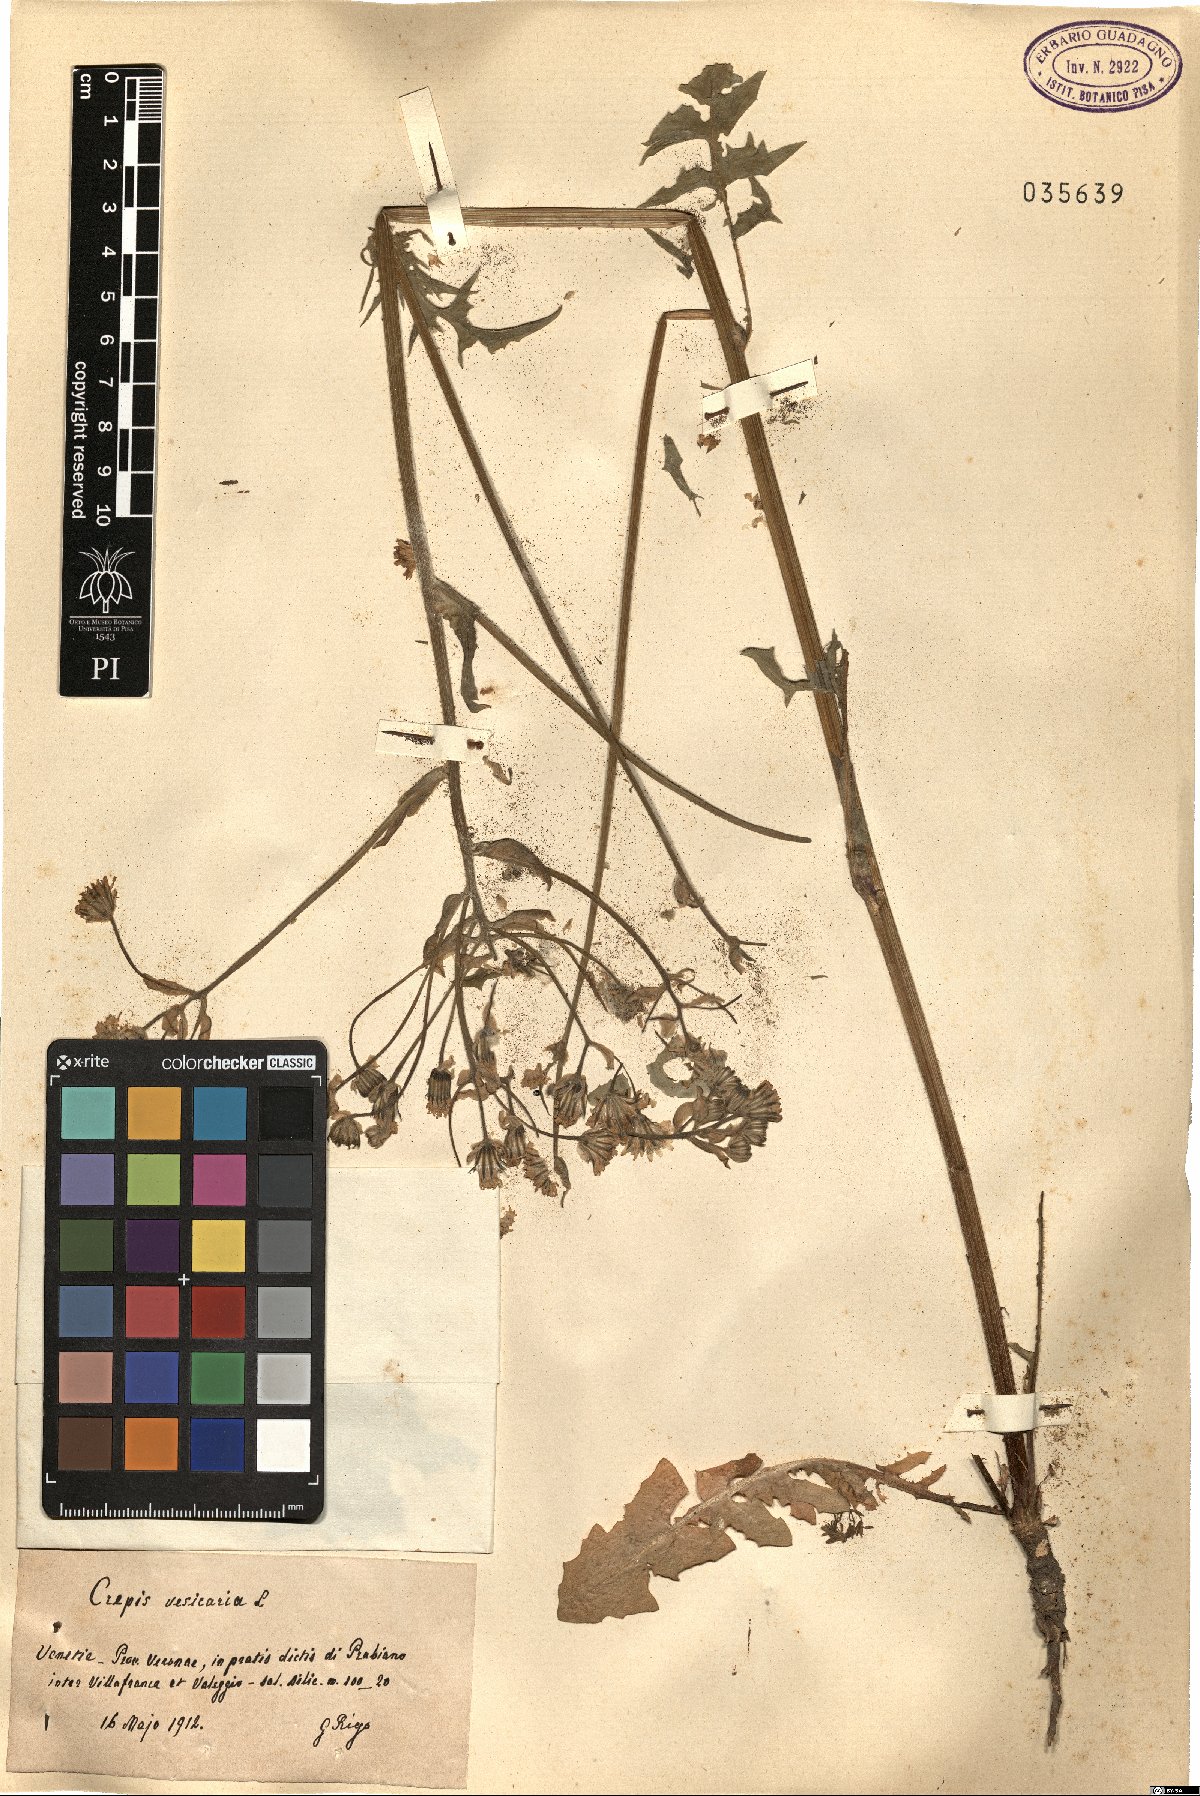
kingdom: Plantae
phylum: Tracheophyta
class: Magnoliopsida
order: Asterales
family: Asteraceae
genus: Crepis
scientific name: Crepis vesicaria
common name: Beaked hawksbeard
